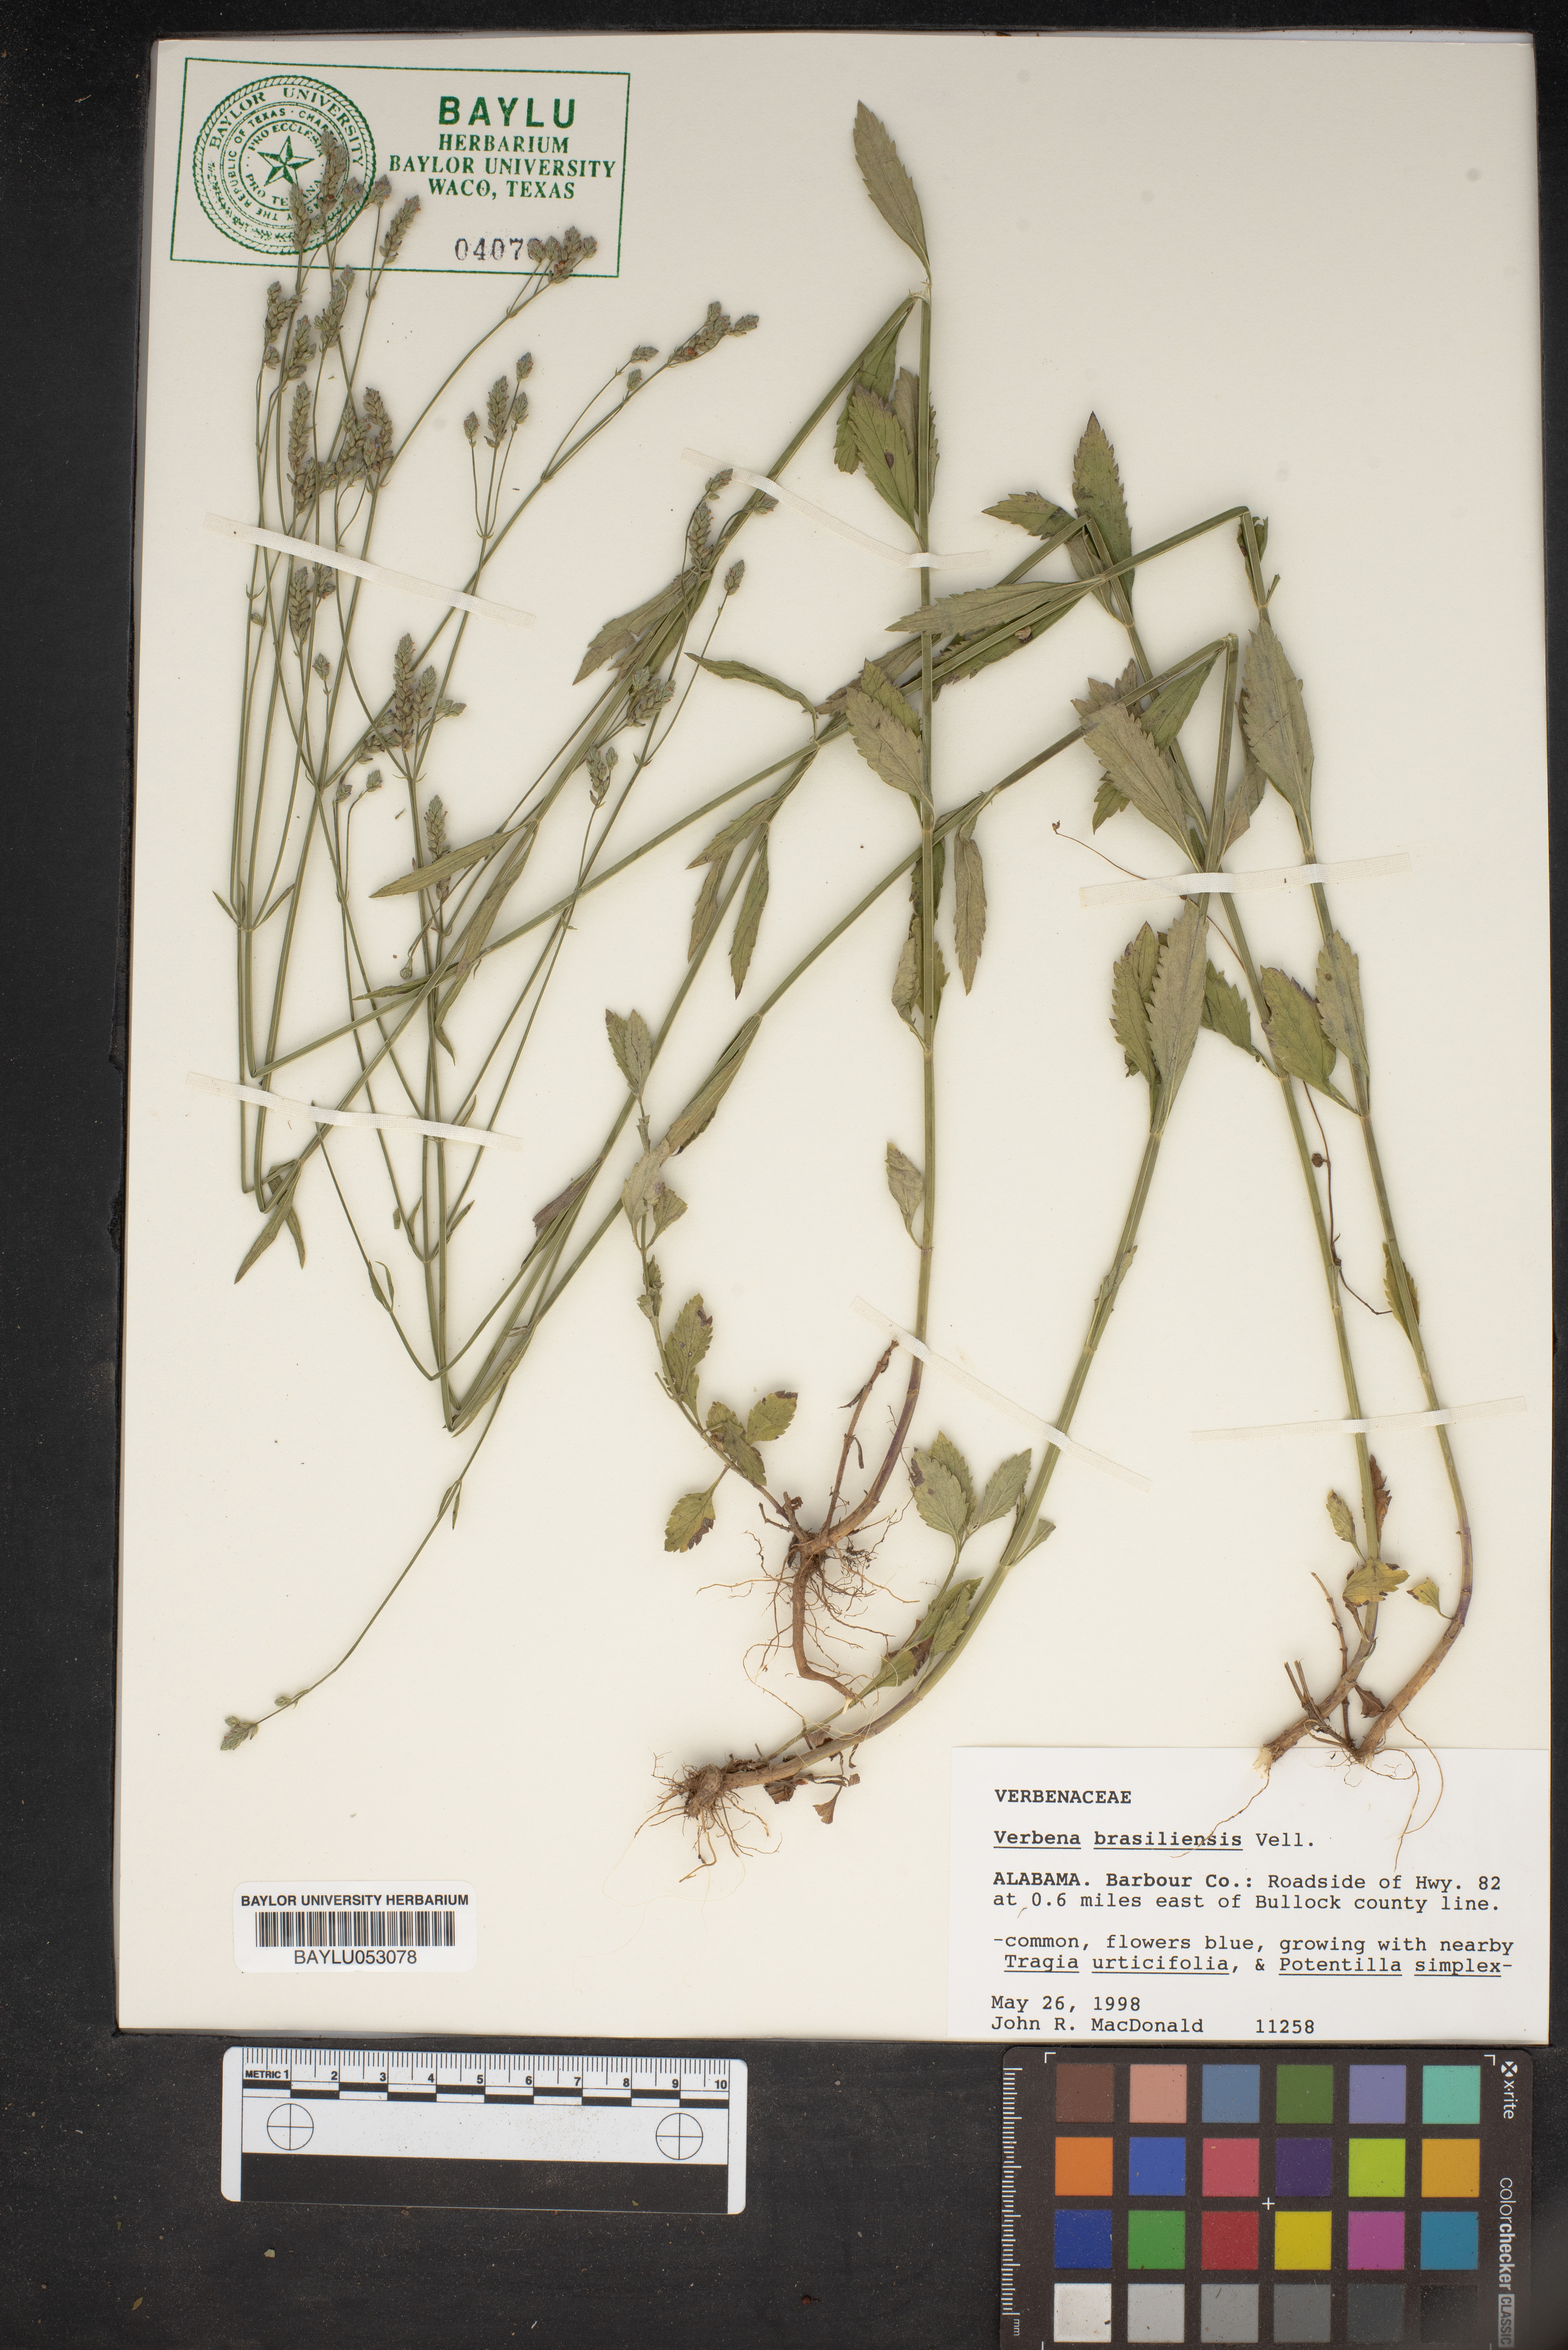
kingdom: Plantae
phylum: Tracheophyta
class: Magnoliopsida
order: Lamiales
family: Verbenaceae
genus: Verbena
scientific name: Verbena brasiliensis
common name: Brazilian vervain
